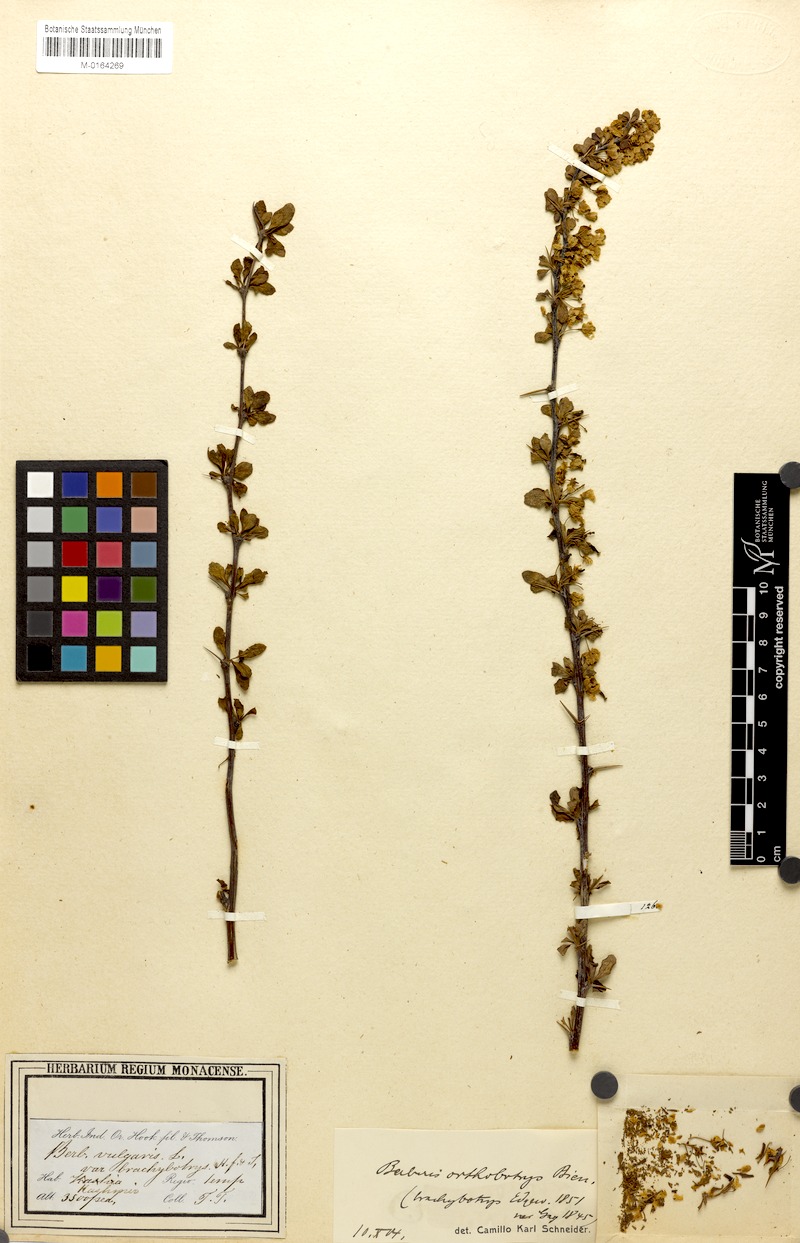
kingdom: Plantae
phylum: Tracheophyta
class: Magnoliopsida
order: Ranunculales
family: Berberidaceae
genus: Berberis
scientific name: Berberis orthobotrys
